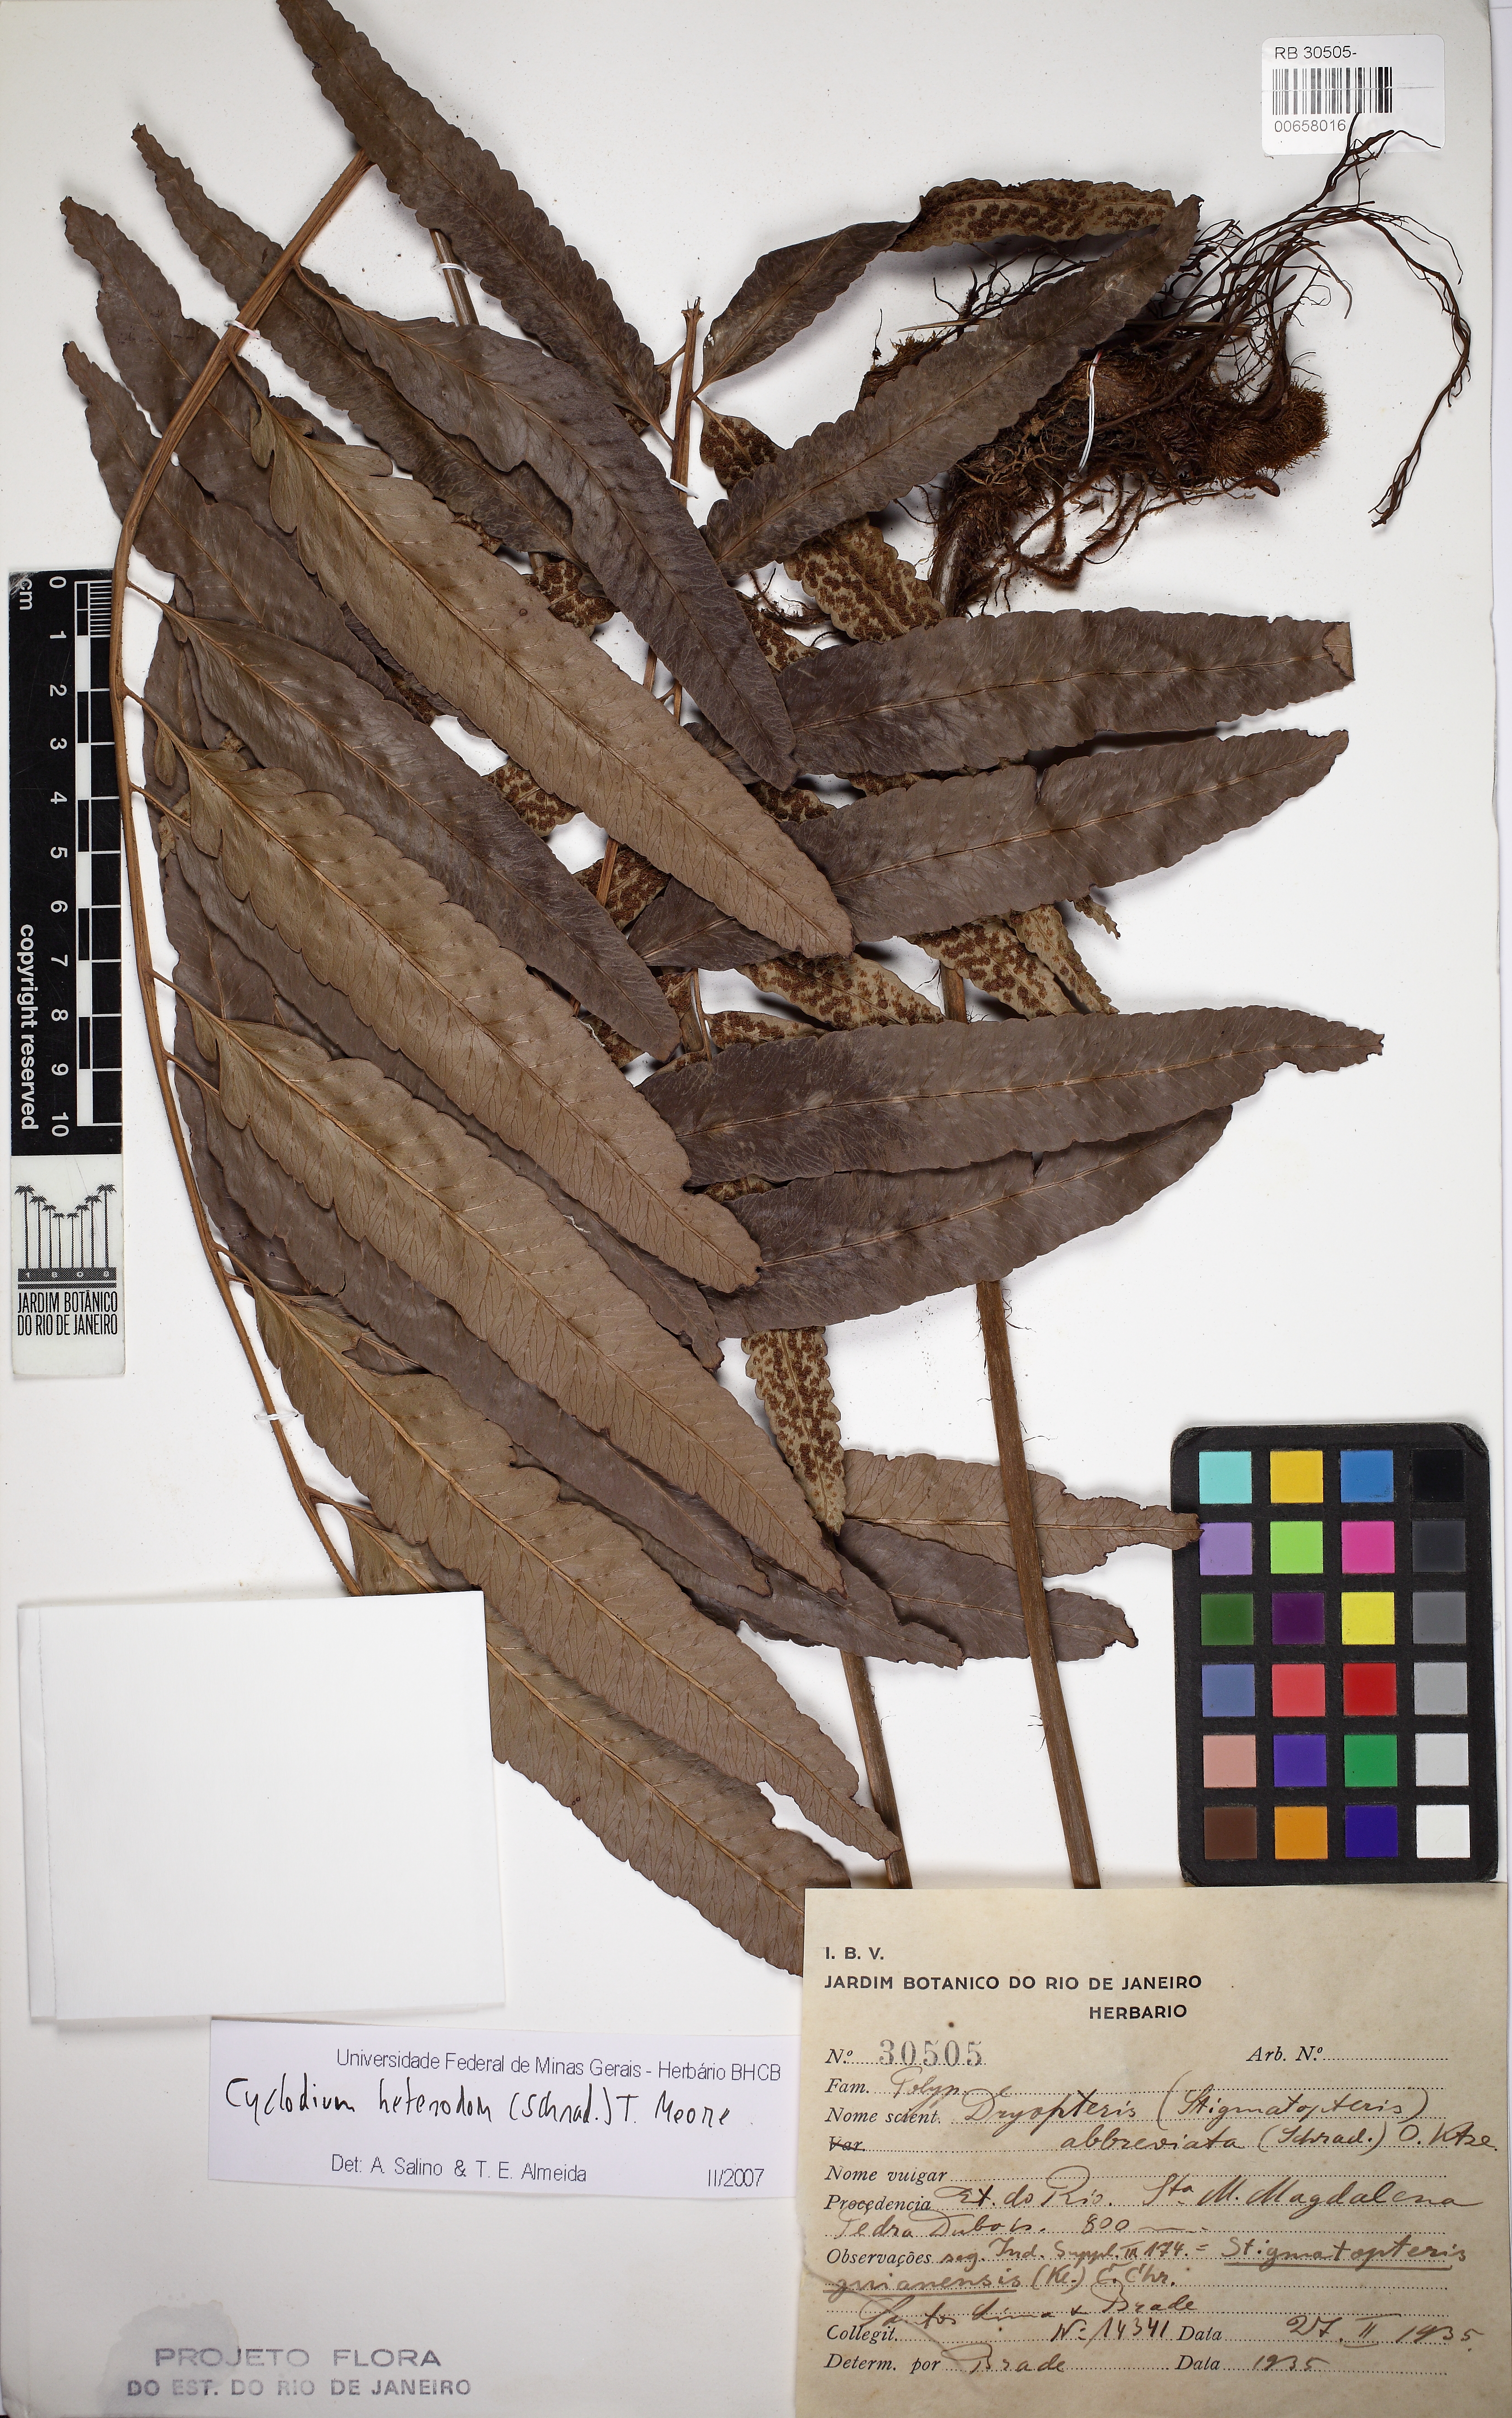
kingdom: Plantae
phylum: Tracheophyta
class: Polypodiopsida
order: Polypodiales
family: Dryopteridaceae
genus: Cyclodium
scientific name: Cyclodium heterodon
